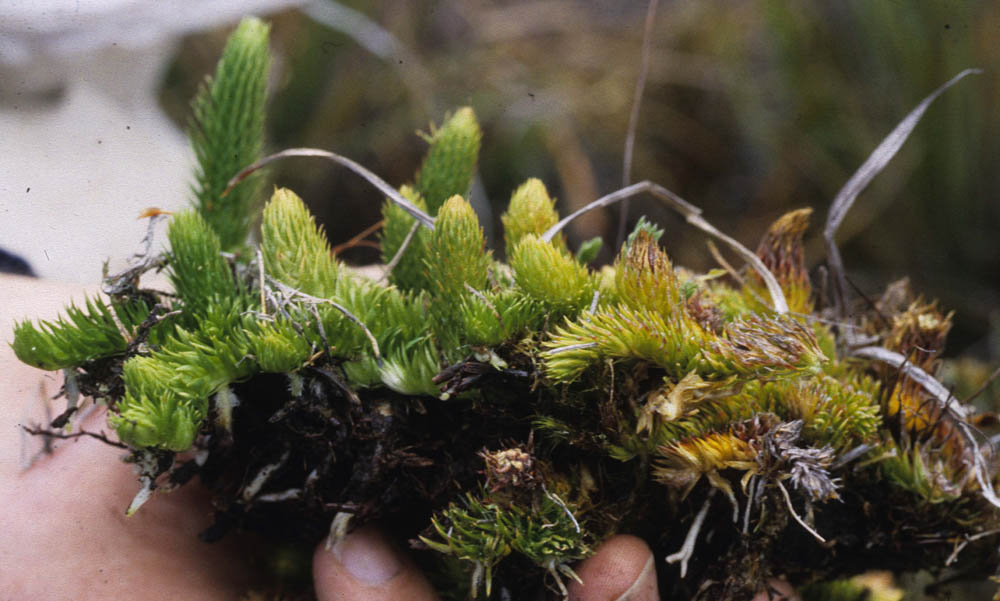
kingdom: Plantae
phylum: Tracheophyta
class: Lycopodiopsida
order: Lycopodiales
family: Lycopodiaceae
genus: Lycopodiella
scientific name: Lycopodiella matthewsii
